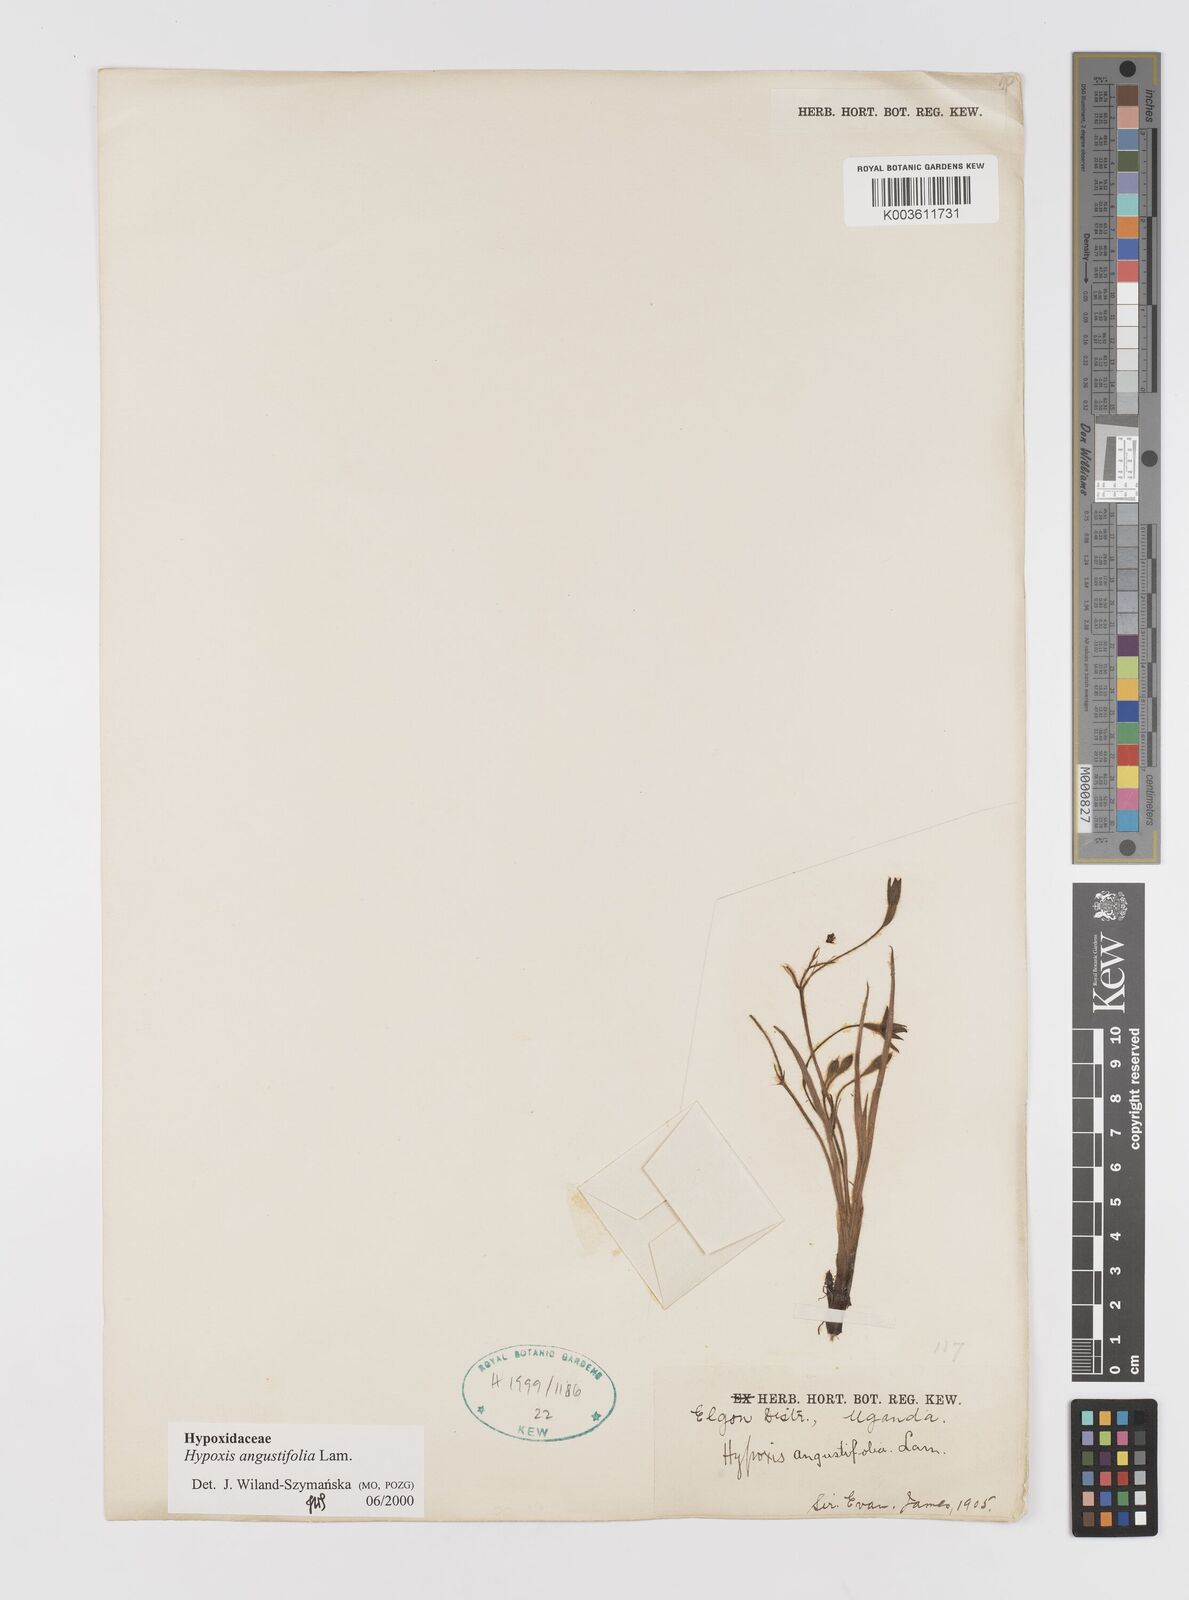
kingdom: Plantae
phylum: Tracheophyta
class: Liliopsida
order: Asparagales
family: Hypoxidaceae
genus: Hypoxis
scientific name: Hypoxis angustifolia
